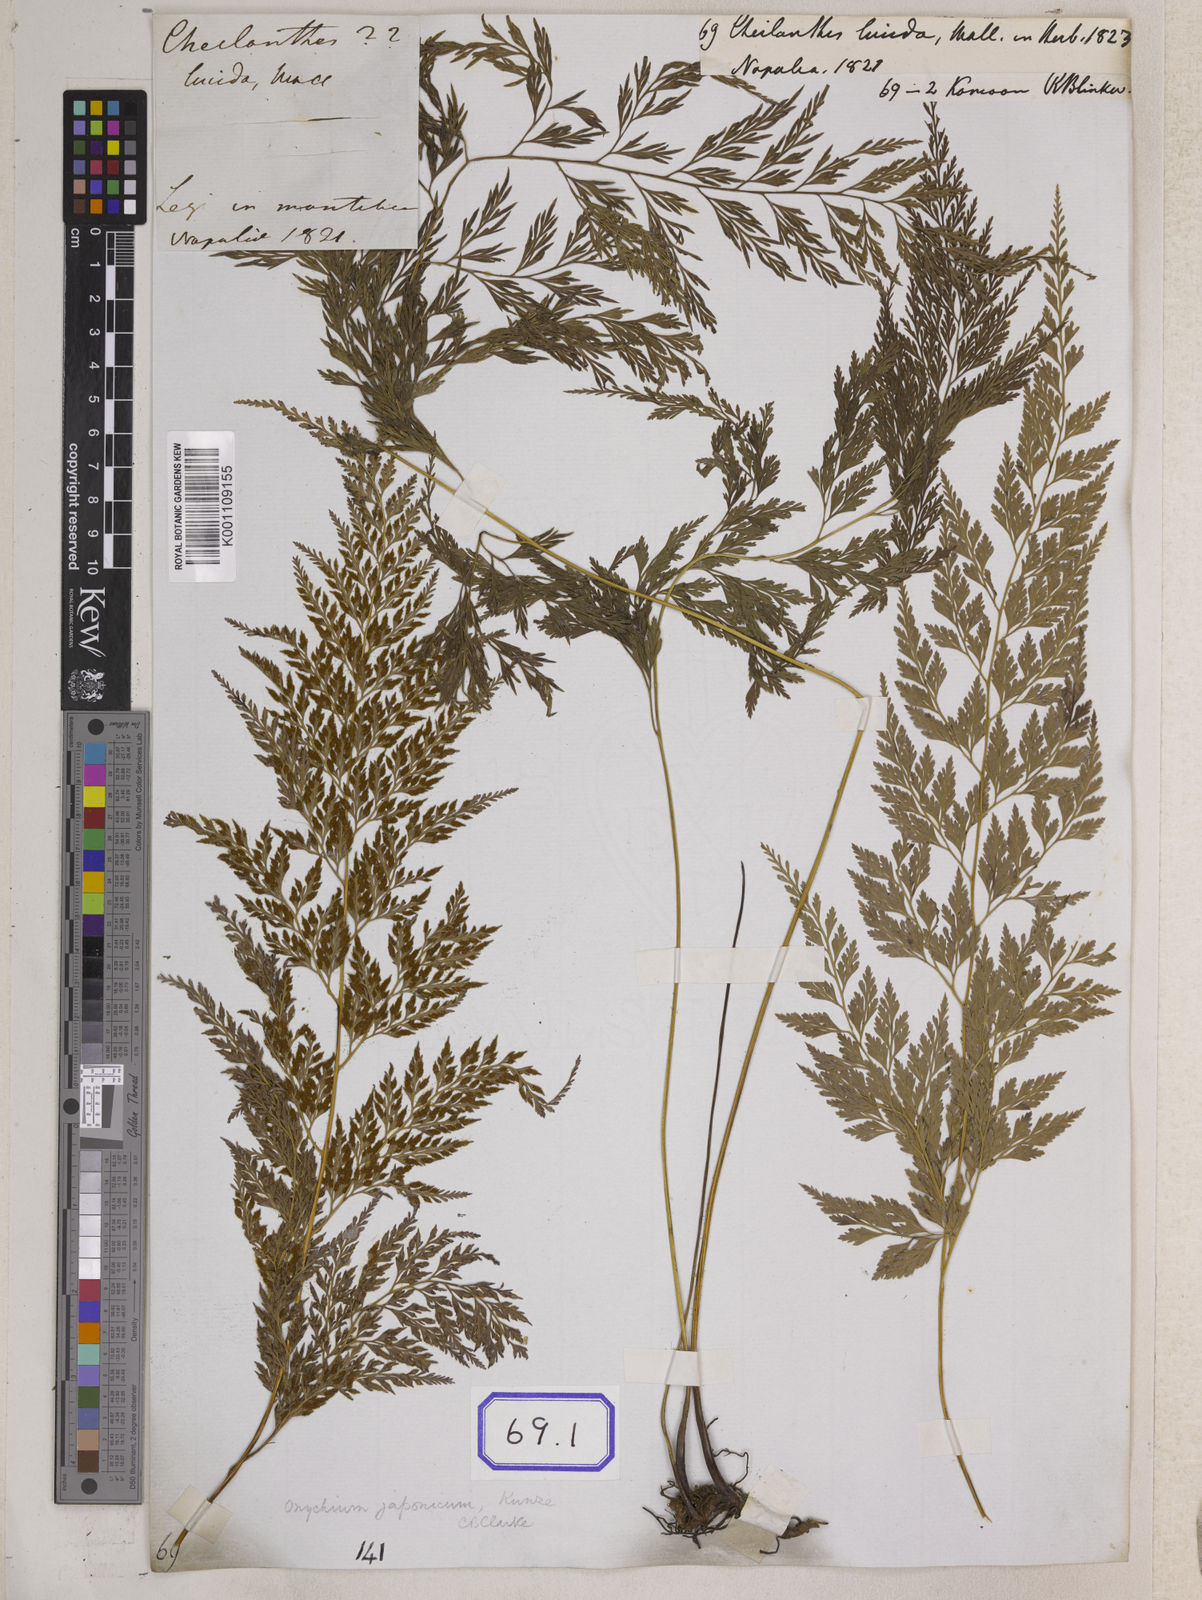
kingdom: Plantae
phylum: Tracheophyta
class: Polypodiopsida
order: Polypodiales
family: Pteridaceae
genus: Onychium
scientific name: Onychium lucidum
